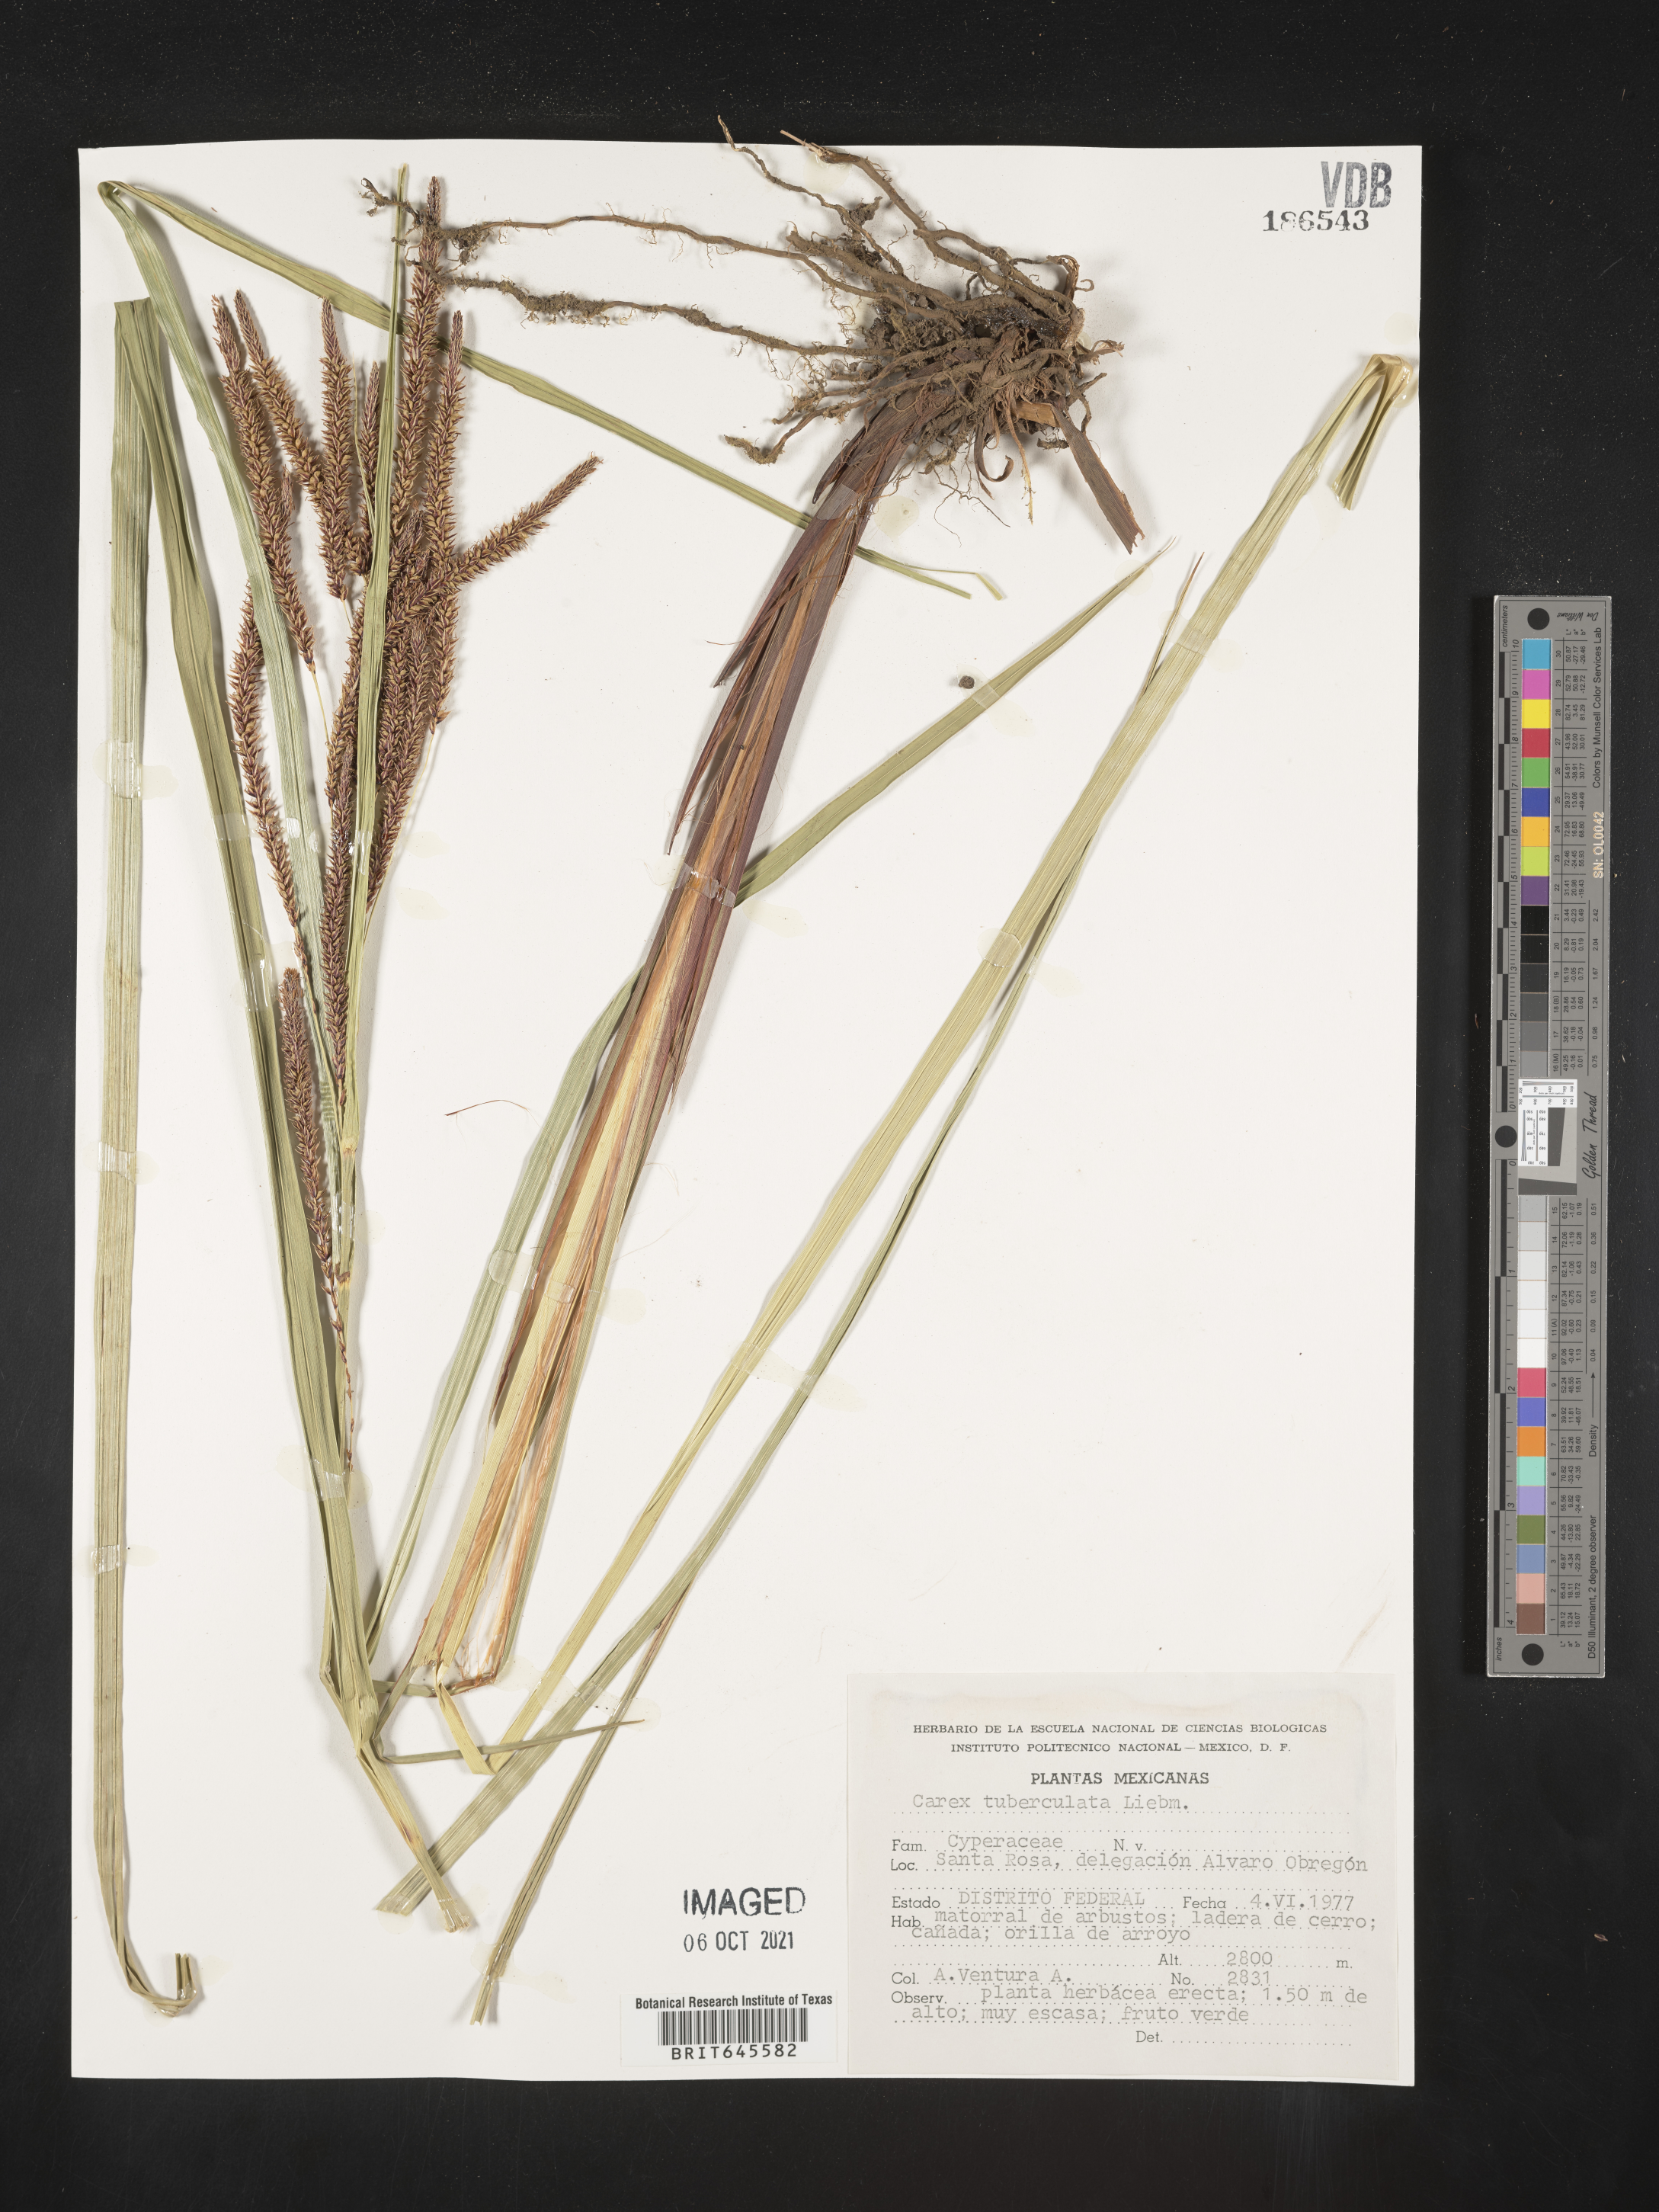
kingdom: Plantae
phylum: Tracheophyta
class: Liliopsida
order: Poales
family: Cyperaceae
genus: Carex
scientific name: Carex
